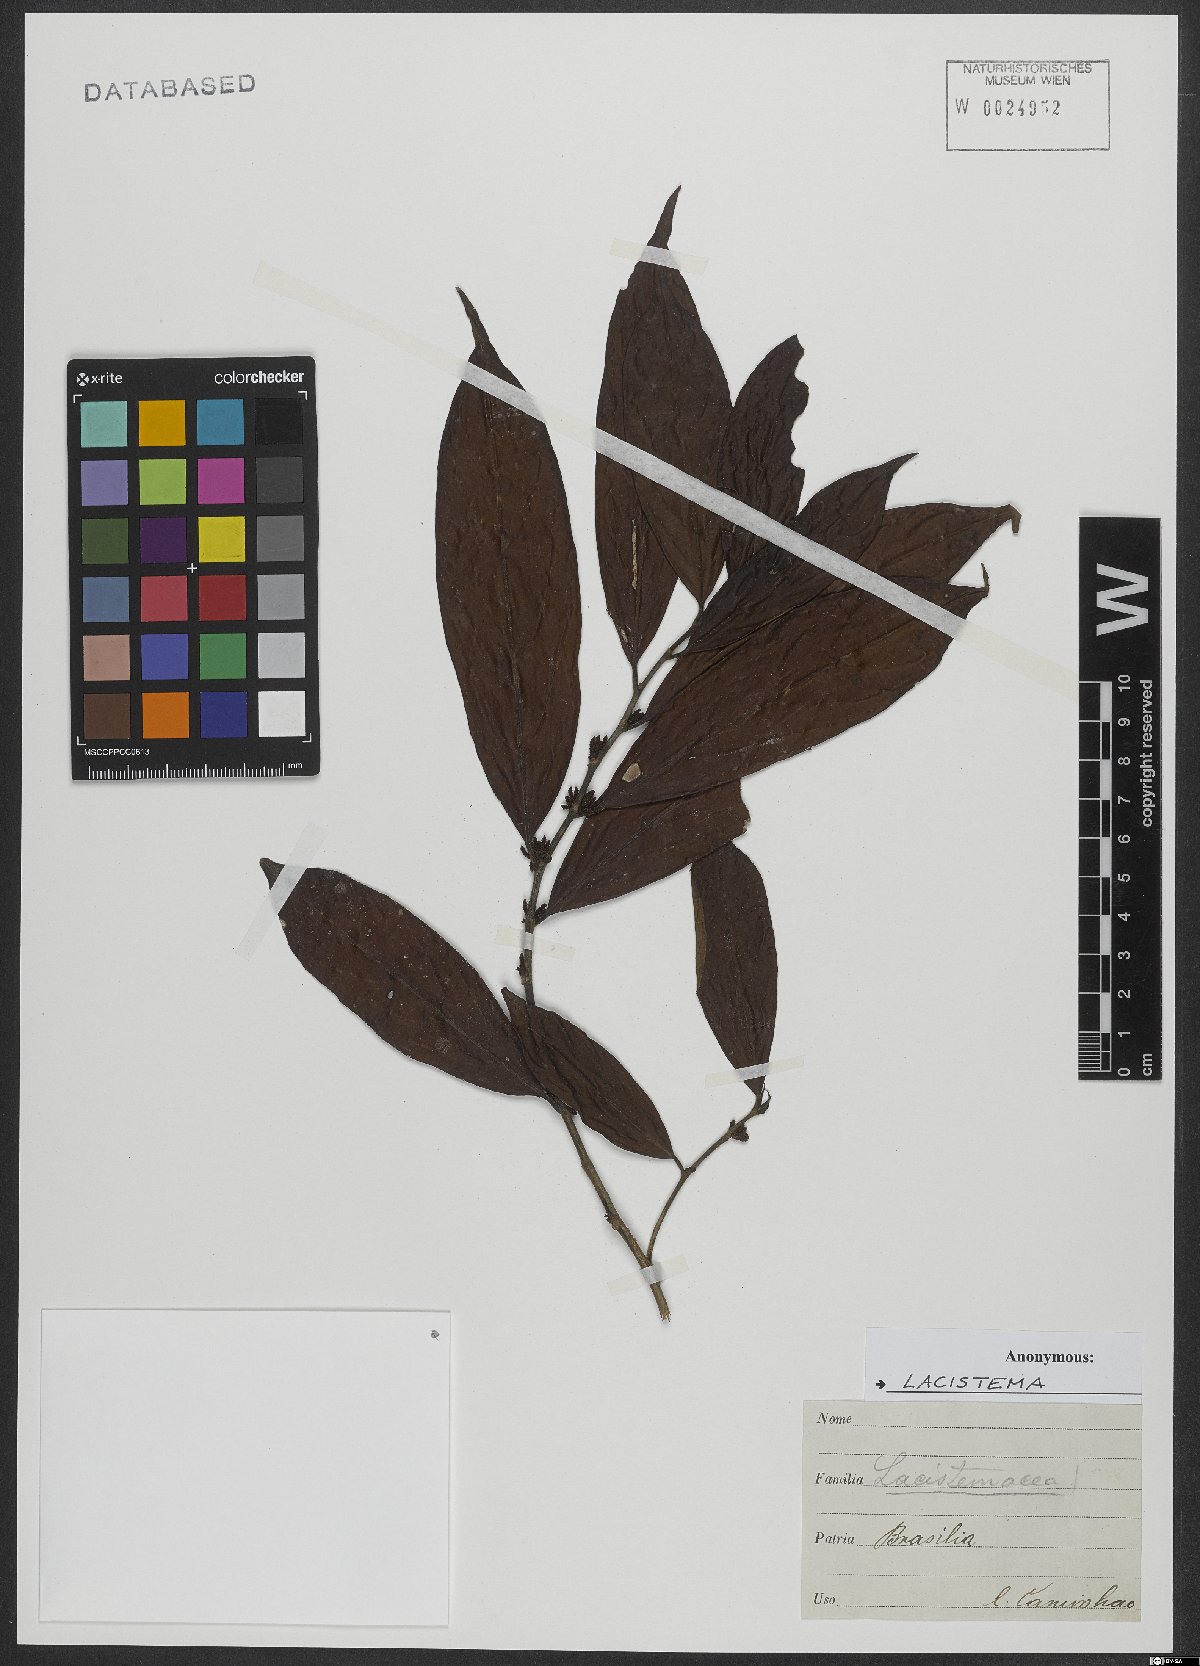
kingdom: Plantae
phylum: Tracheophyta
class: Magnoliopsida
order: Malpighiales
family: Lacistemataceae
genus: Lacistema
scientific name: Lacistema
